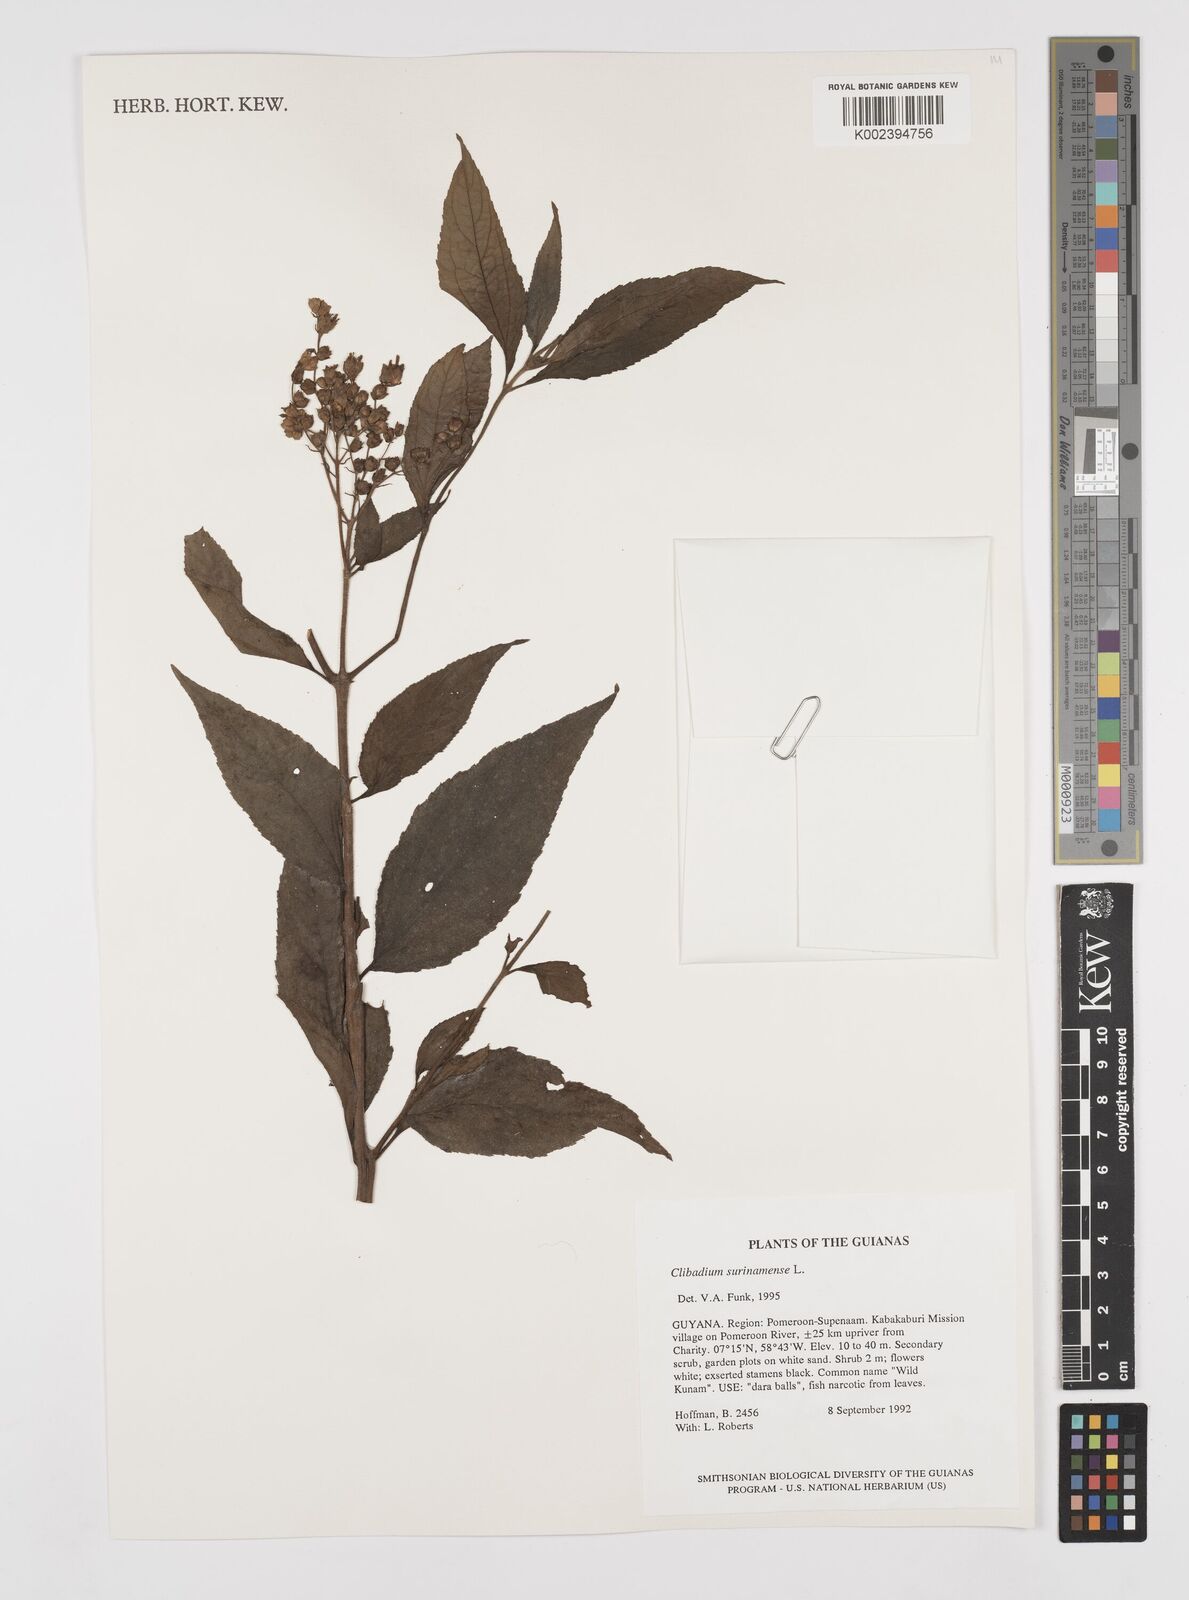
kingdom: Plantae
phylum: Tracheophyta
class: Magnoliopsida
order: Asterales
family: Asteraceae
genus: Clibadium
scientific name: Clibadium surinamense
